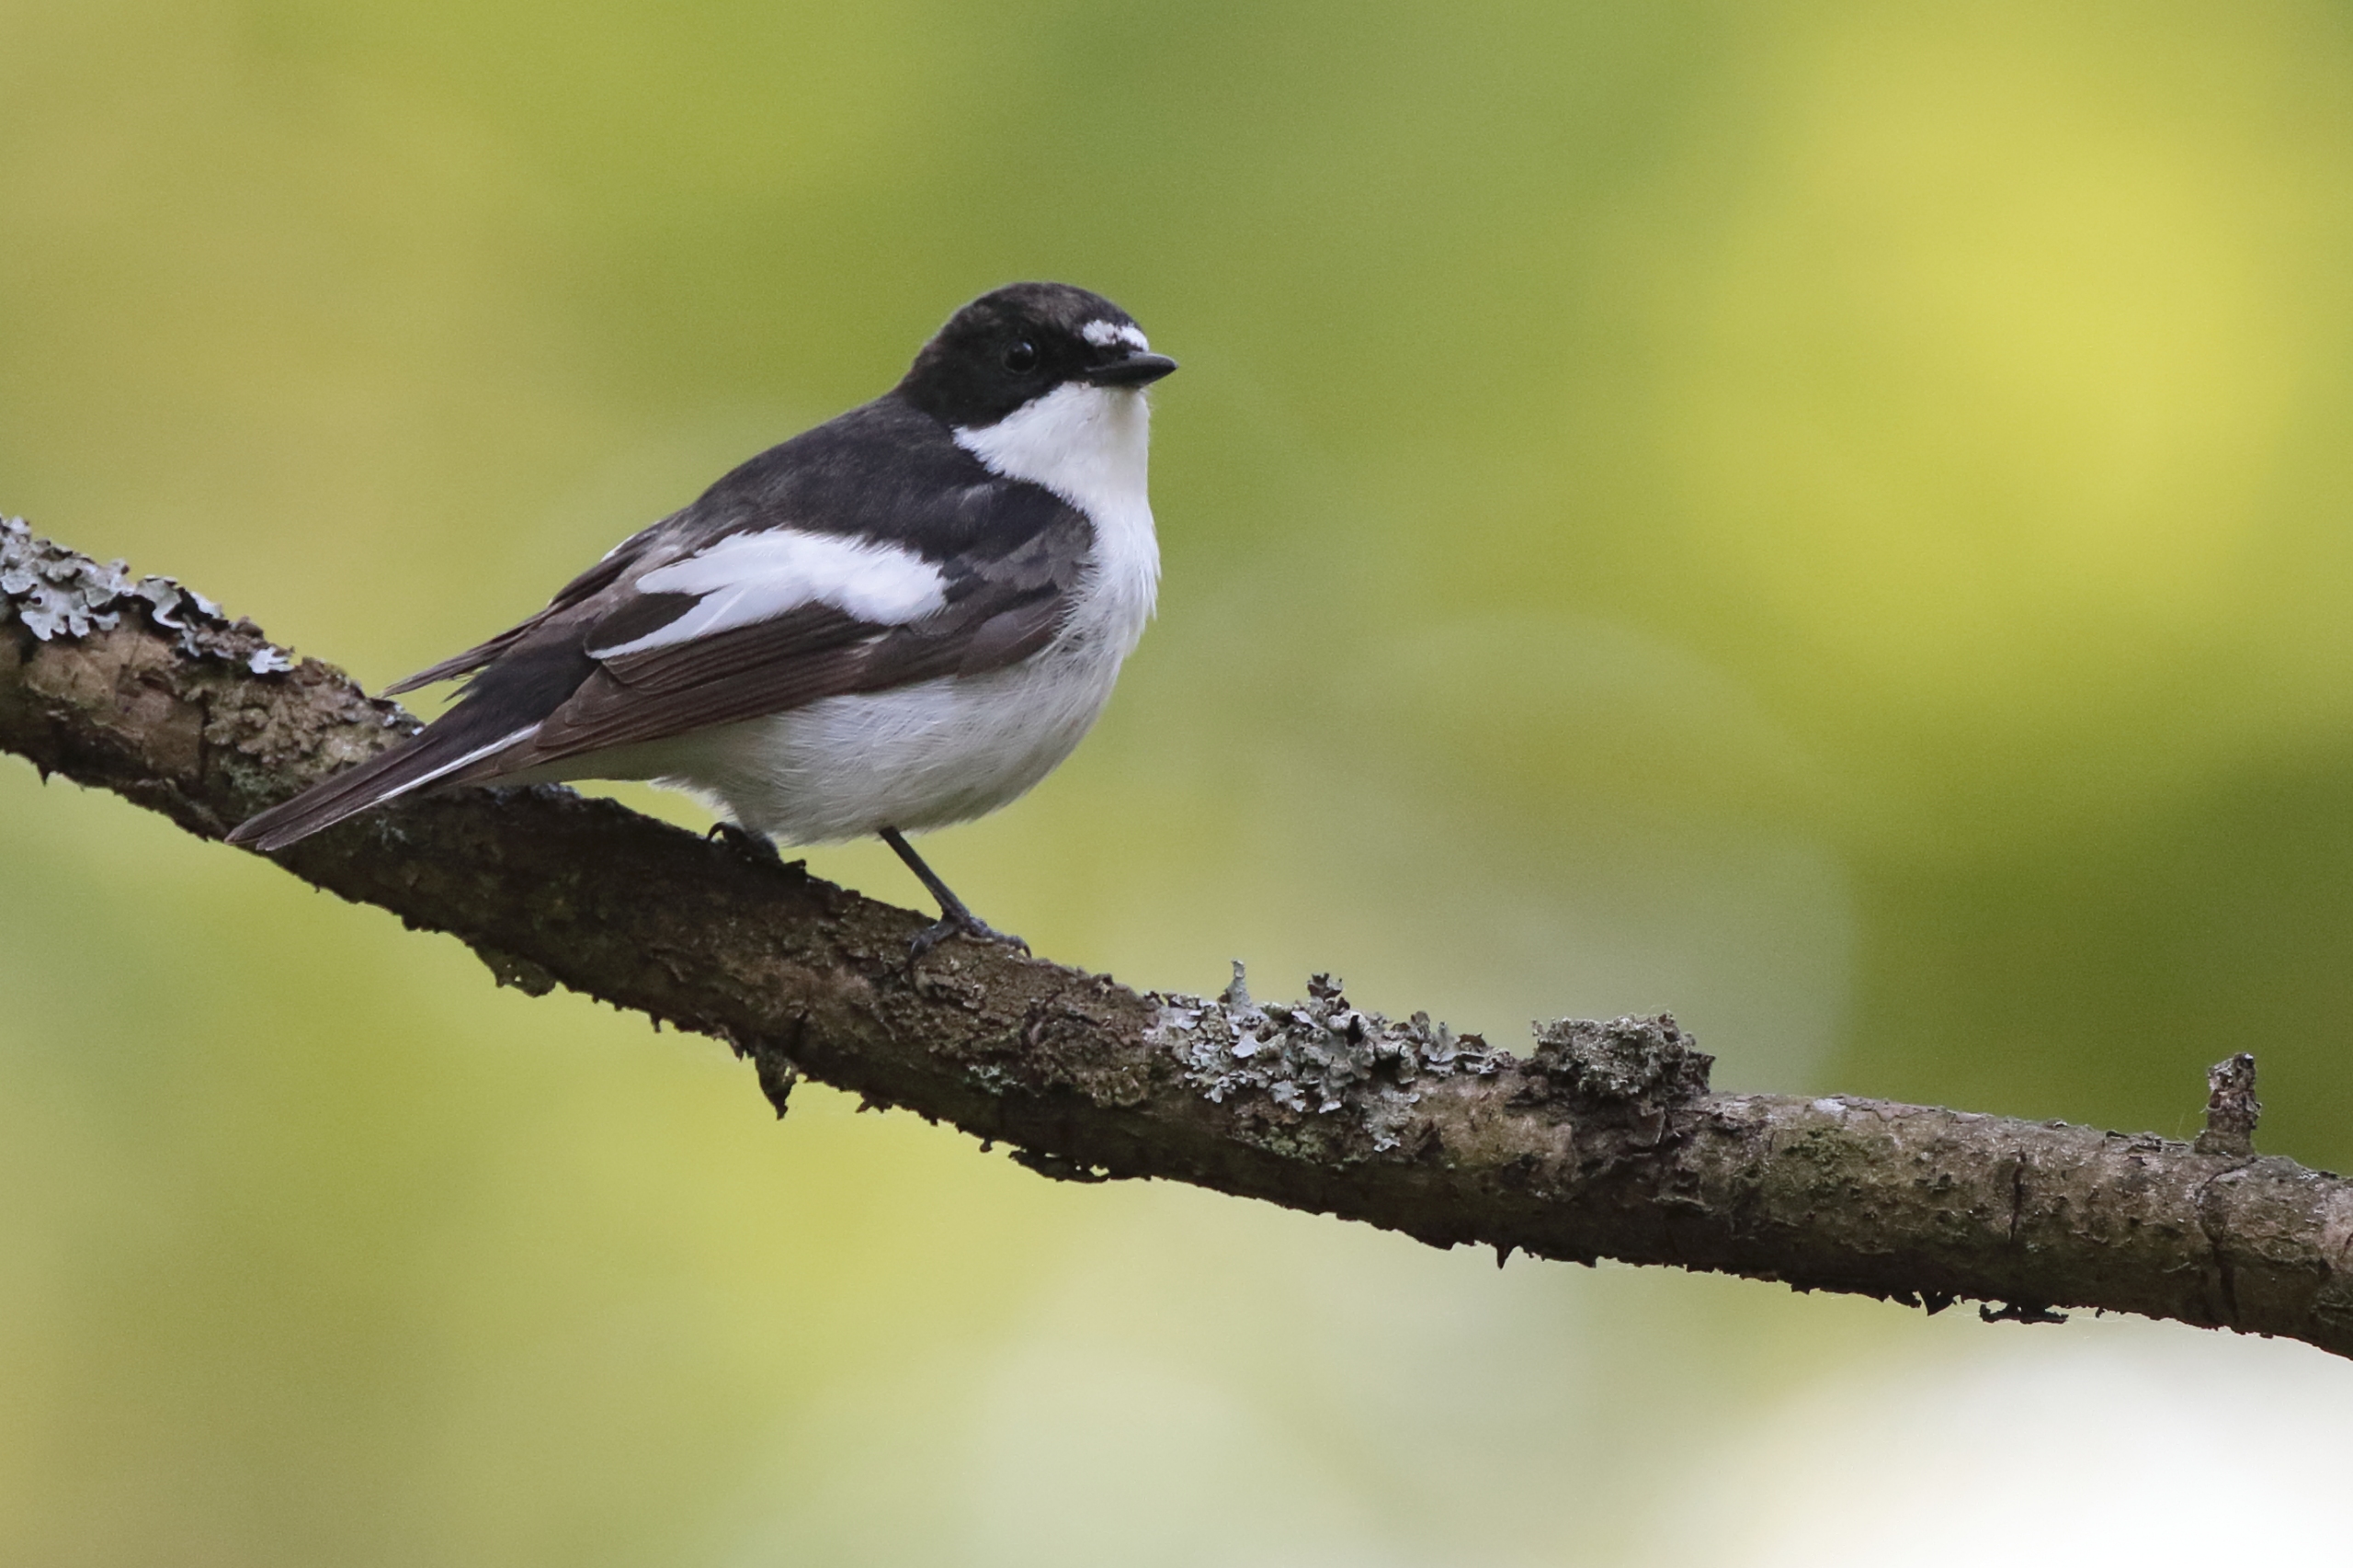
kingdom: Animalia
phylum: Chordata
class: Aves
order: Passeriformes
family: Muscicapidae
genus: Ficedula
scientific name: Ficedula hypoleuca
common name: Broget fluesnapper
